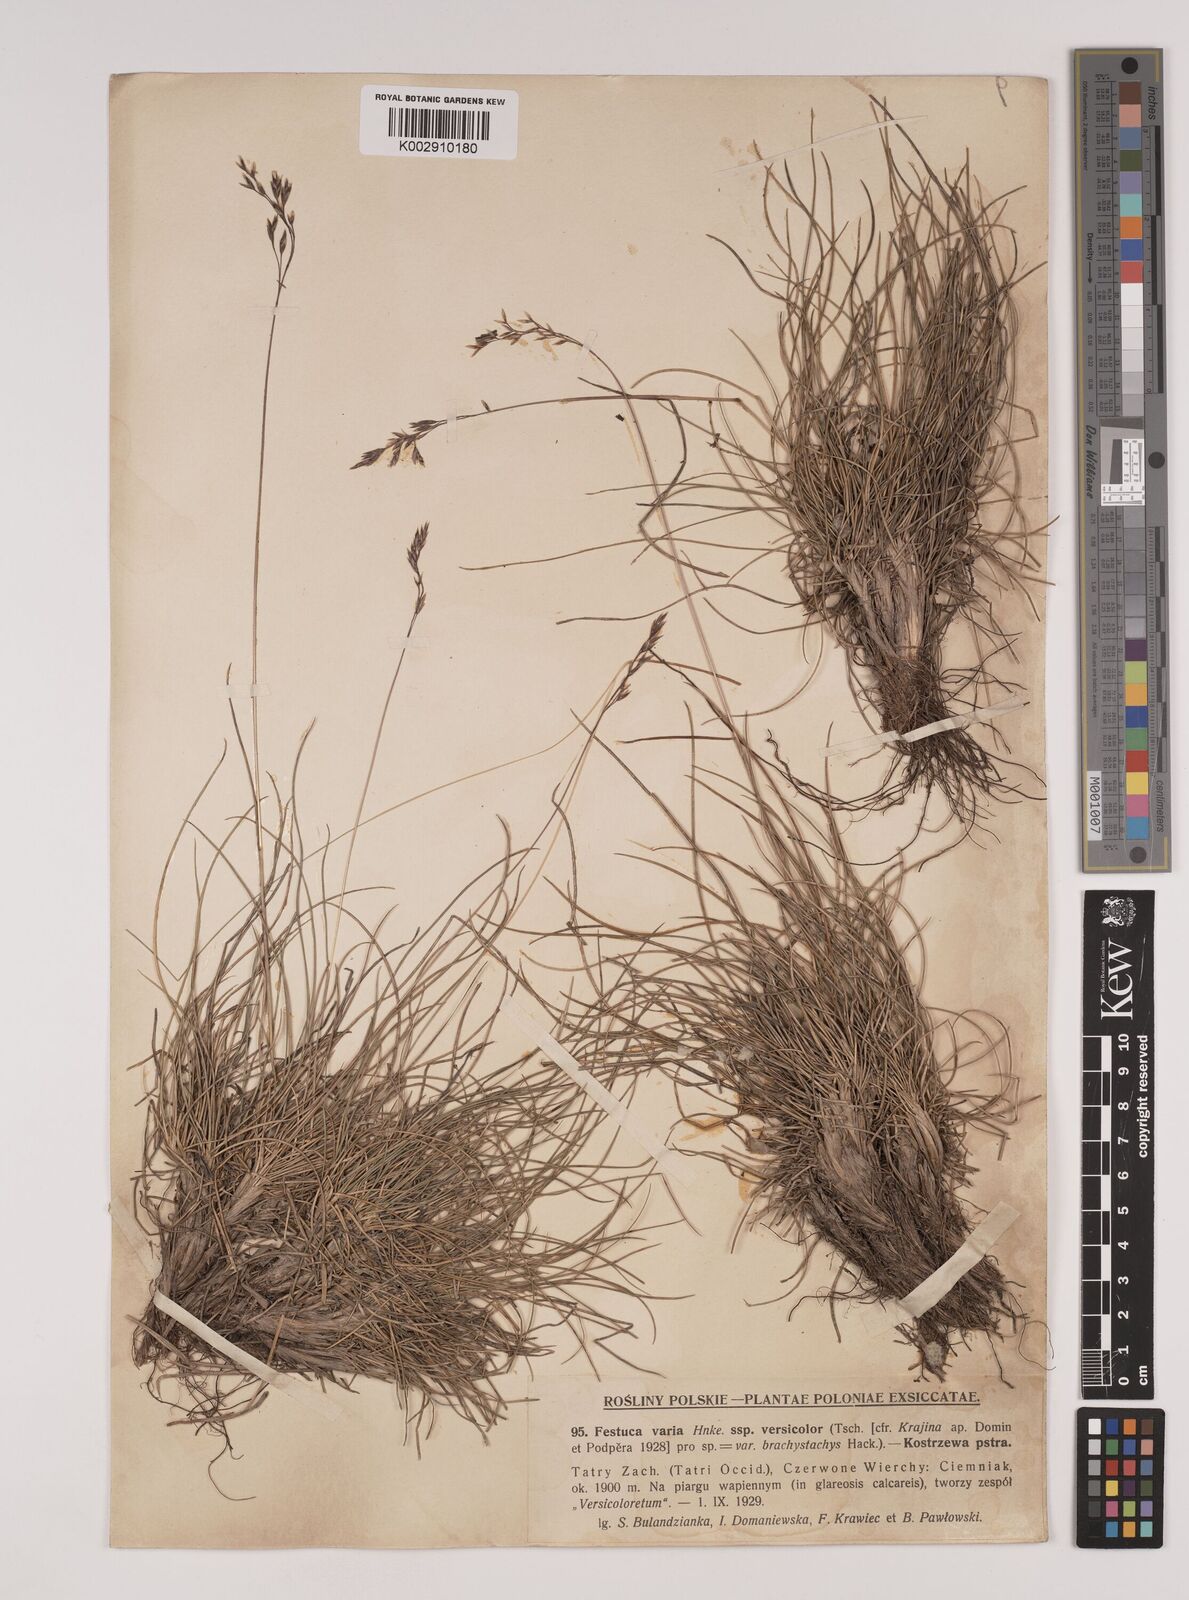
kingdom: Plantae
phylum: Tracheophyta
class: Liliopsida
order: Poales
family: Poaceae
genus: Festuca
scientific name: Festuca versicolor
